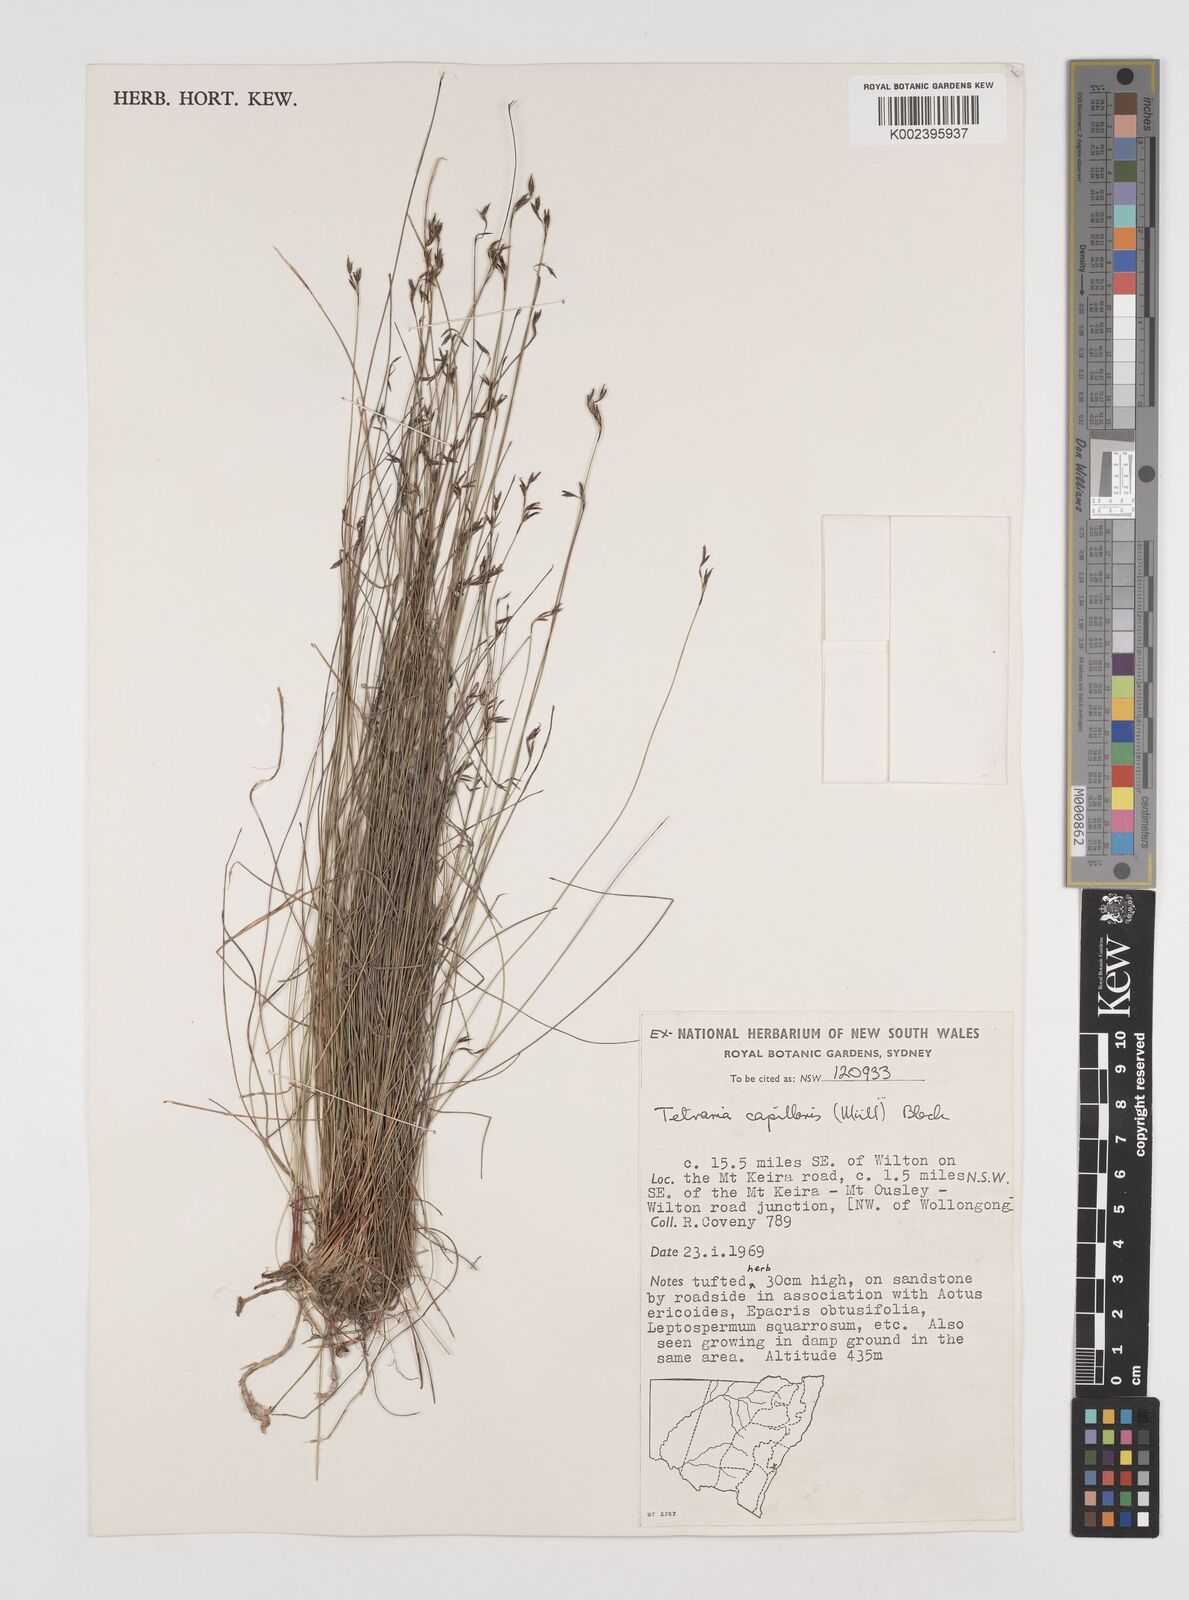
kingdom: Plantae
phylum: Tracheophyta
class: Liliopsida
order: Poales
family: Cyperaceae
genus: Tetraria
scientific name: Tetraria capillaris
